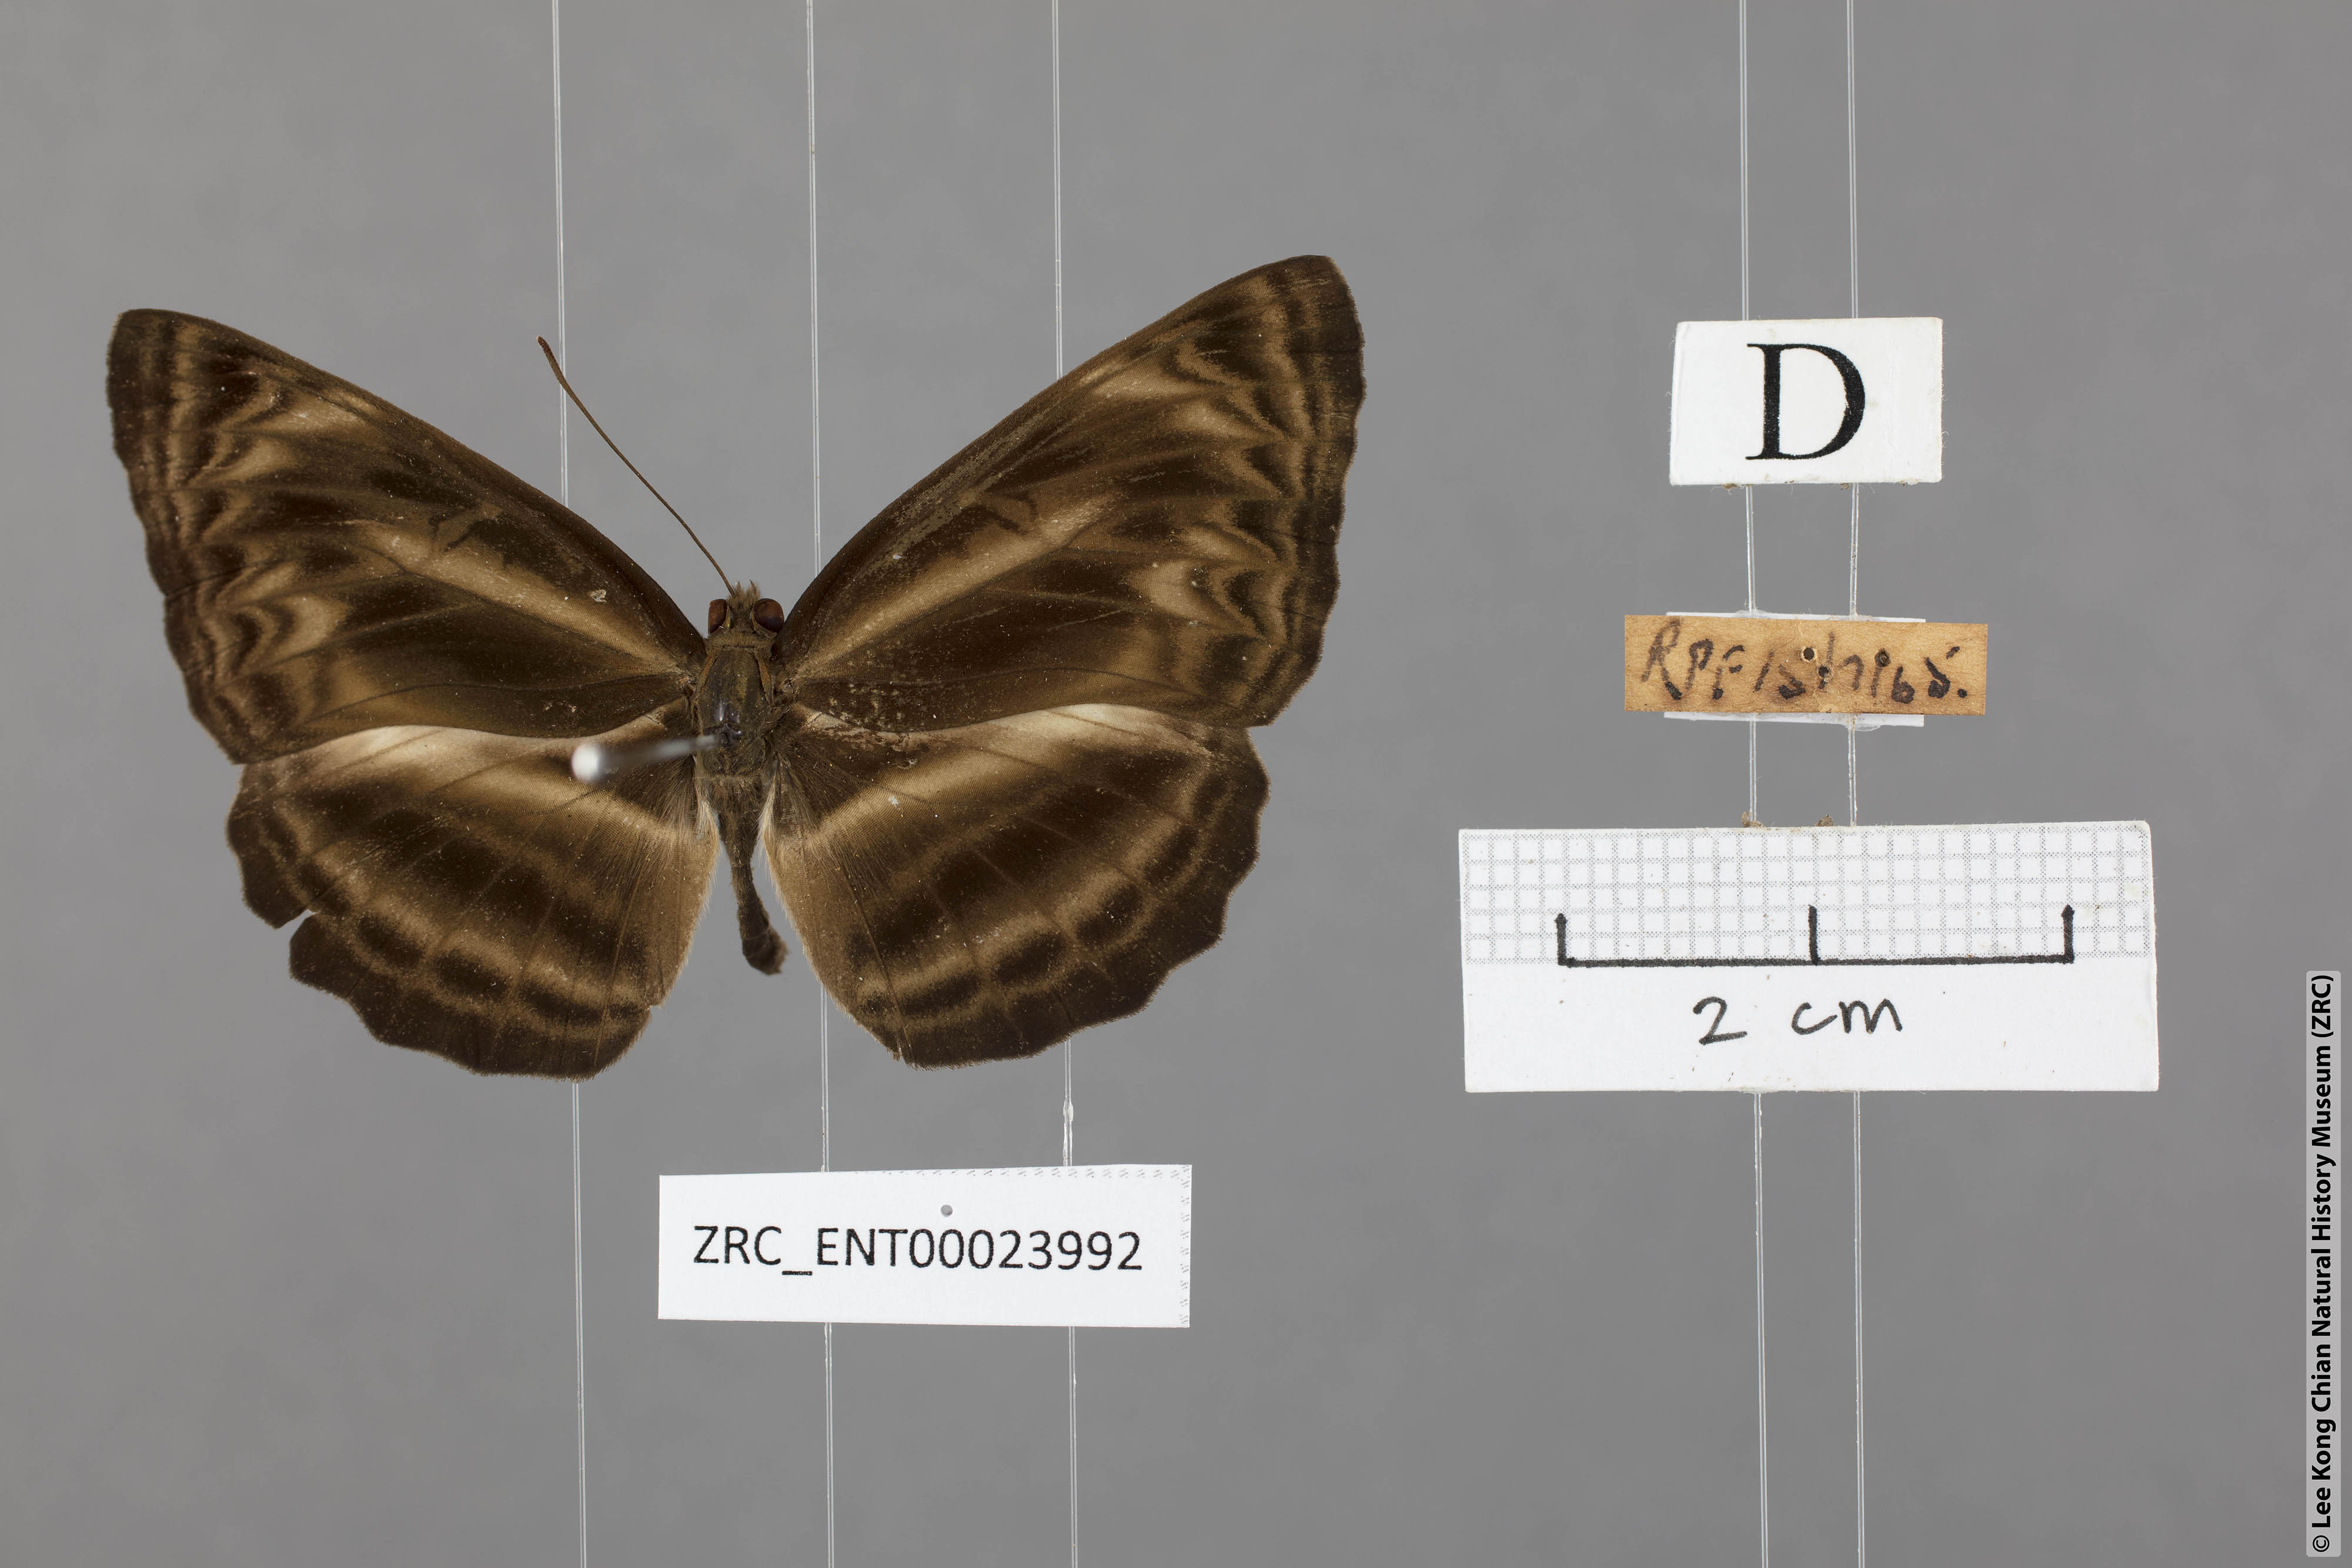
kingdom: Animalia
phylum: Arthropoda
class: Insecta
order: Lepidoptera
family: Nymphalidae
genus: Neptis
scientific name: Neptis harita
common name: Chocolate sailer
